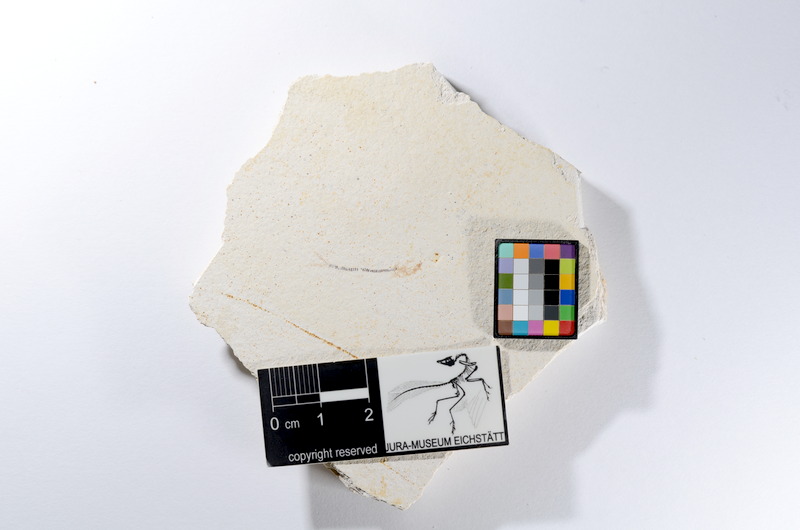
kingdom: Animalia
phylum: Chordata
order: Salmoniformes
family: Orthogonikleithridae
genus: Orthogonikleithrus
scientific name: Orthogonikleithrus hoelli
